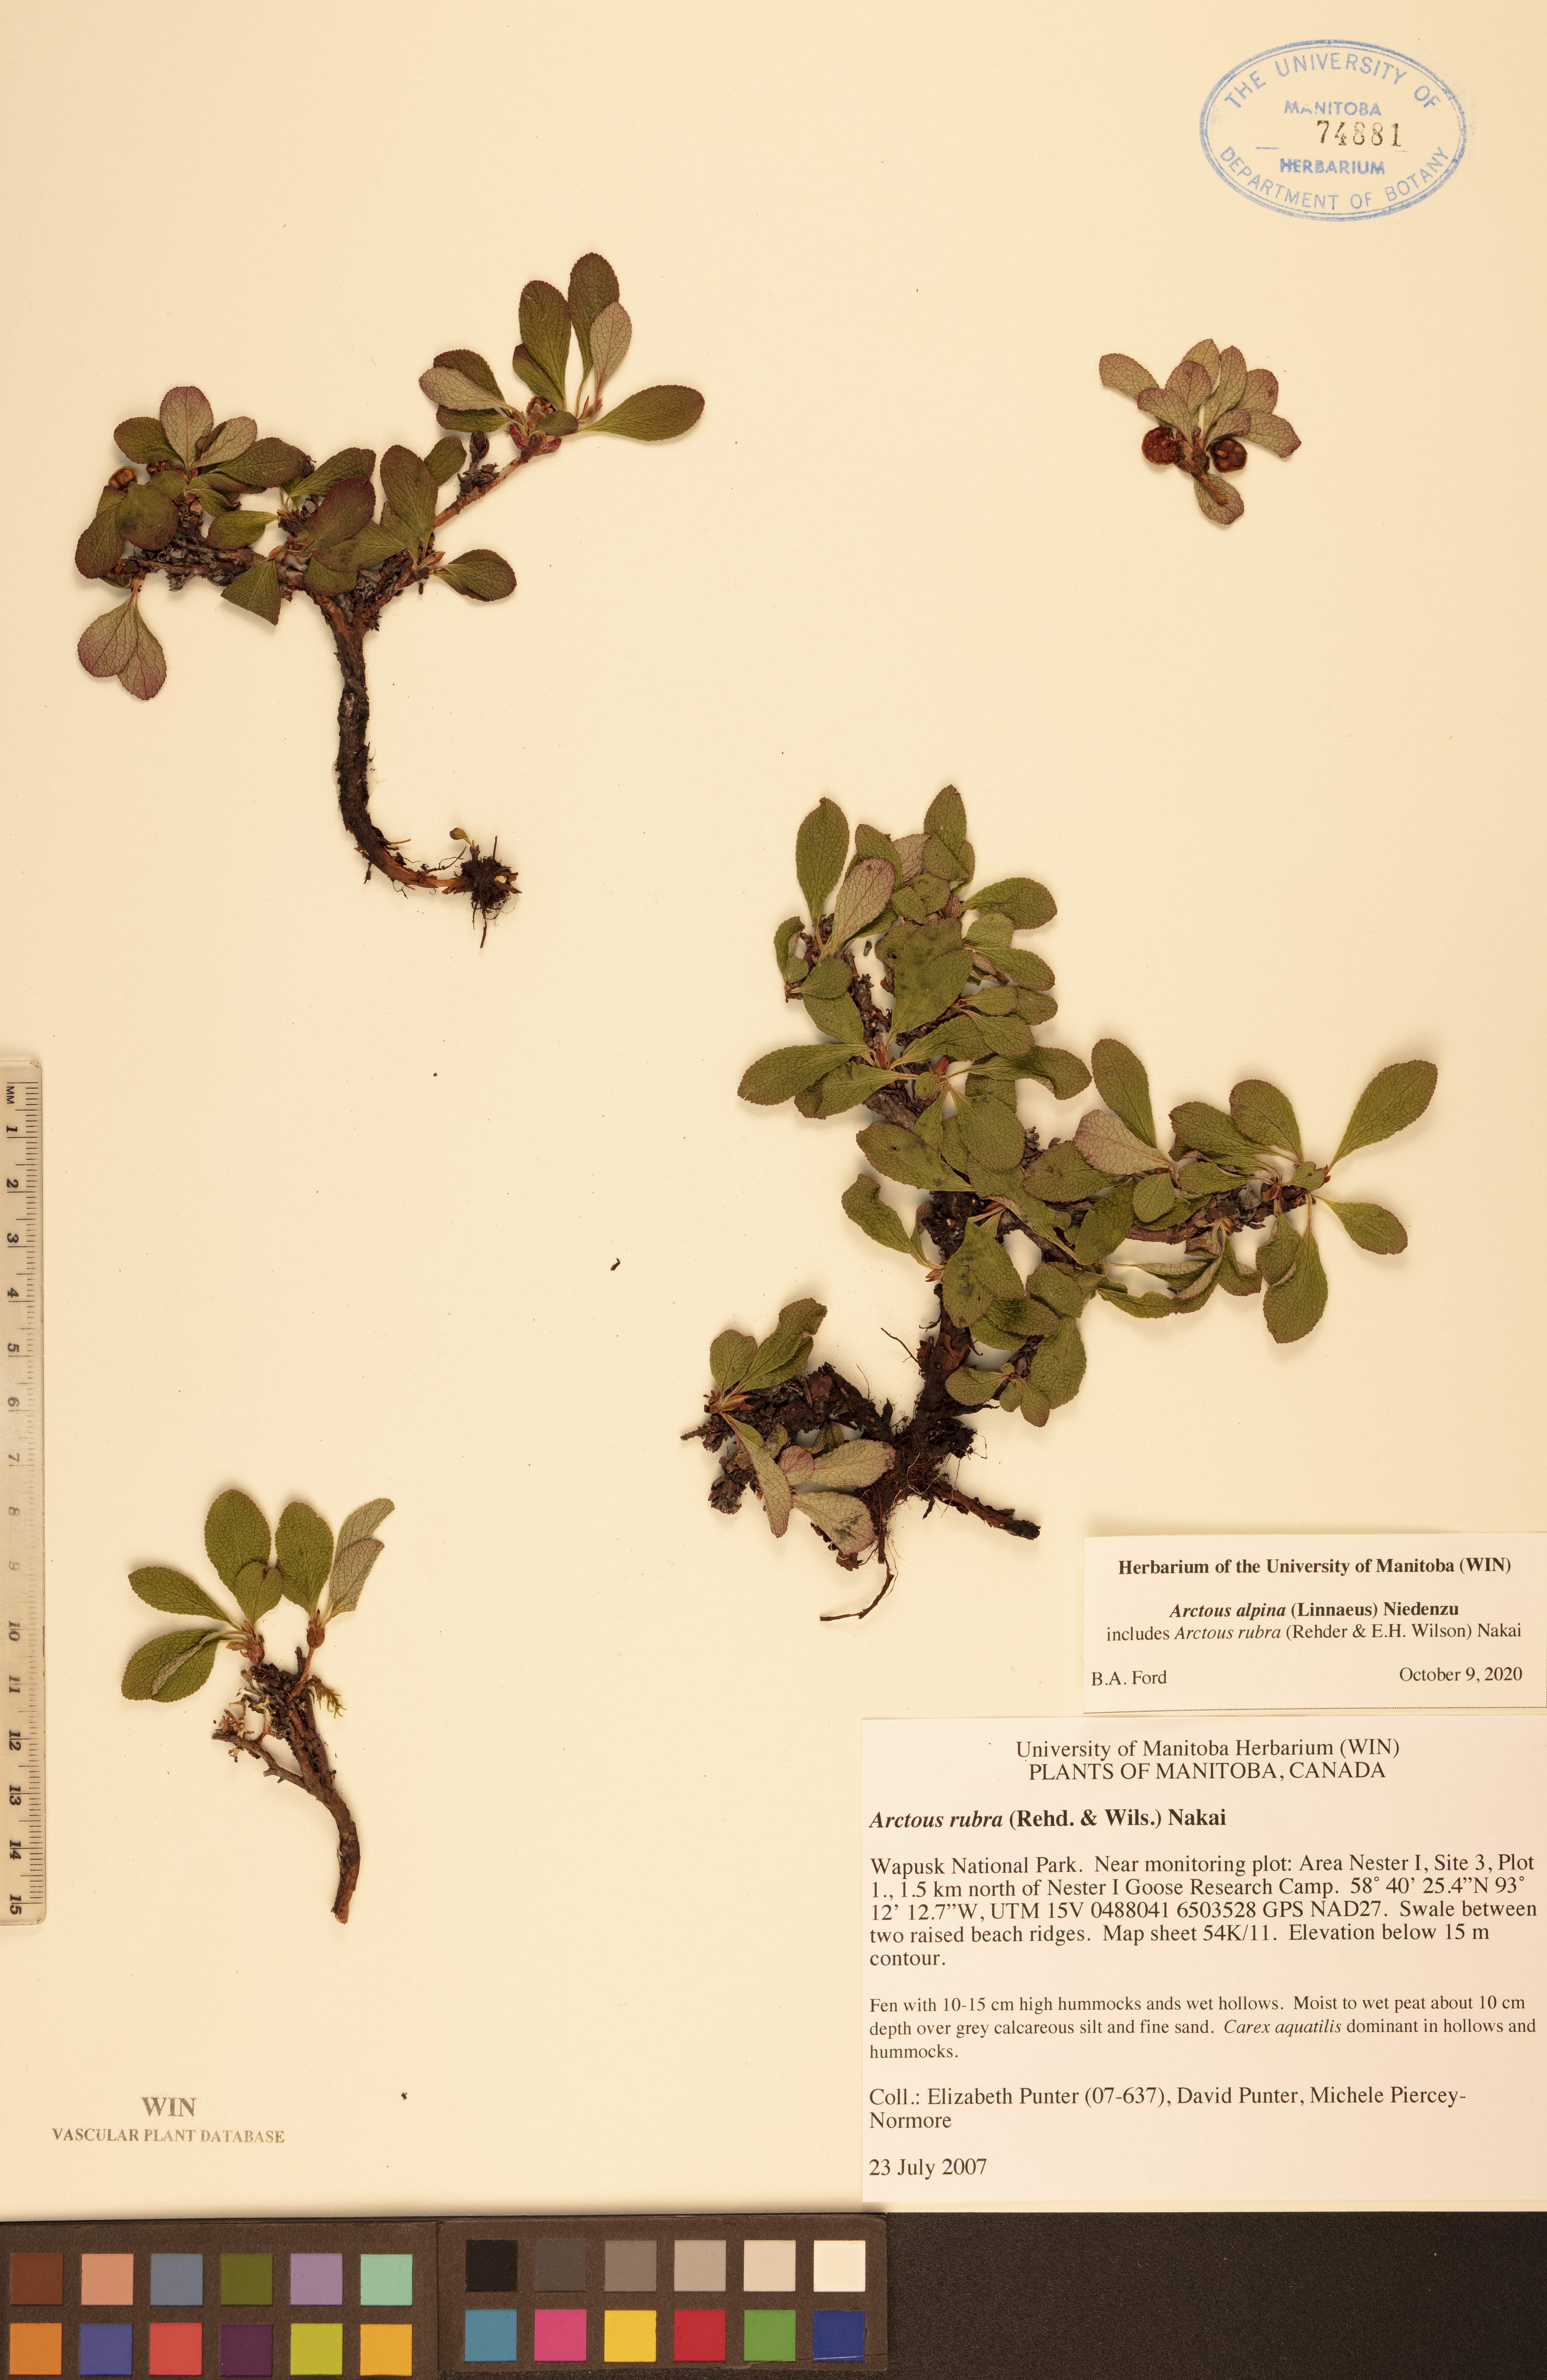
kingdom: Plantae
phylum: Tracheophyta
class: Magnoliopsida
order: Ericales
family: Ericaceae
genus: Arctostaphylos
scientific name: Arctostaphylos alpinus
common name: Alpine bearberry
